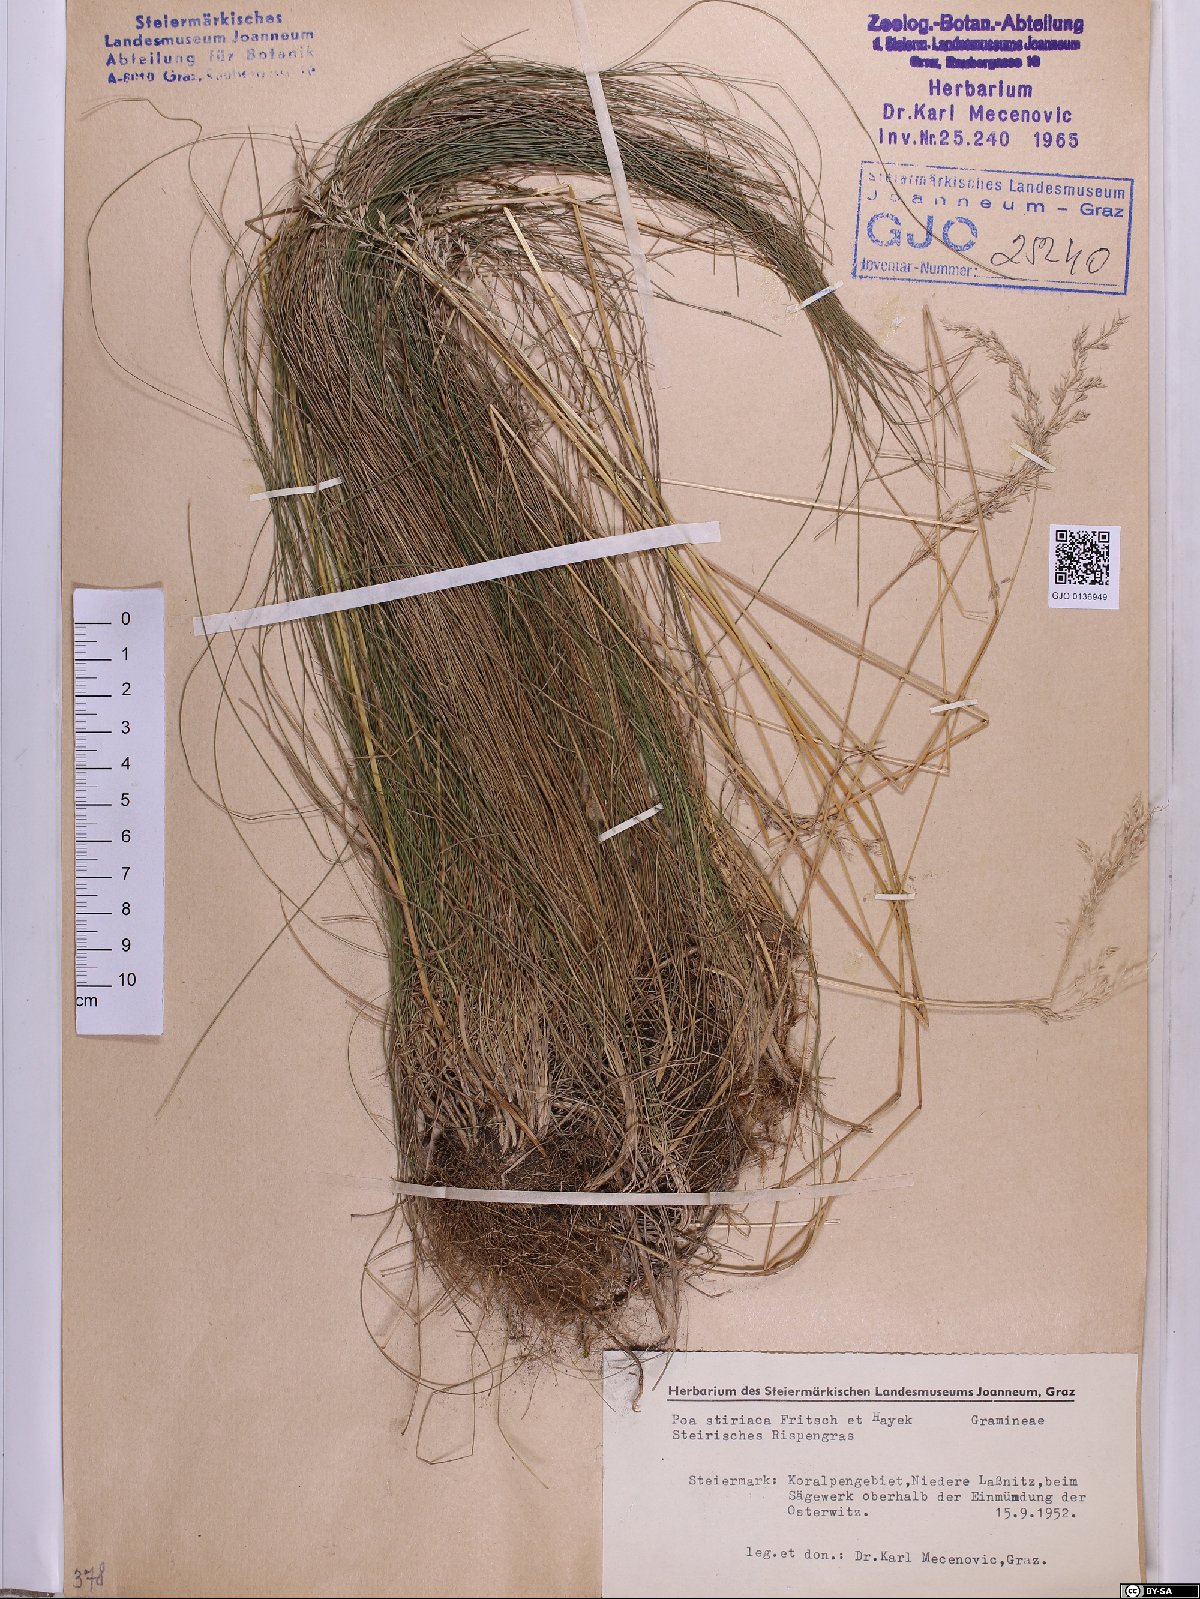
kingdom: Plantae
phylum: Tracheophyta
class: Liliopsida
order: Poales
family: Poaceae
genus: Poa
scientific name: Poa stiriaca
